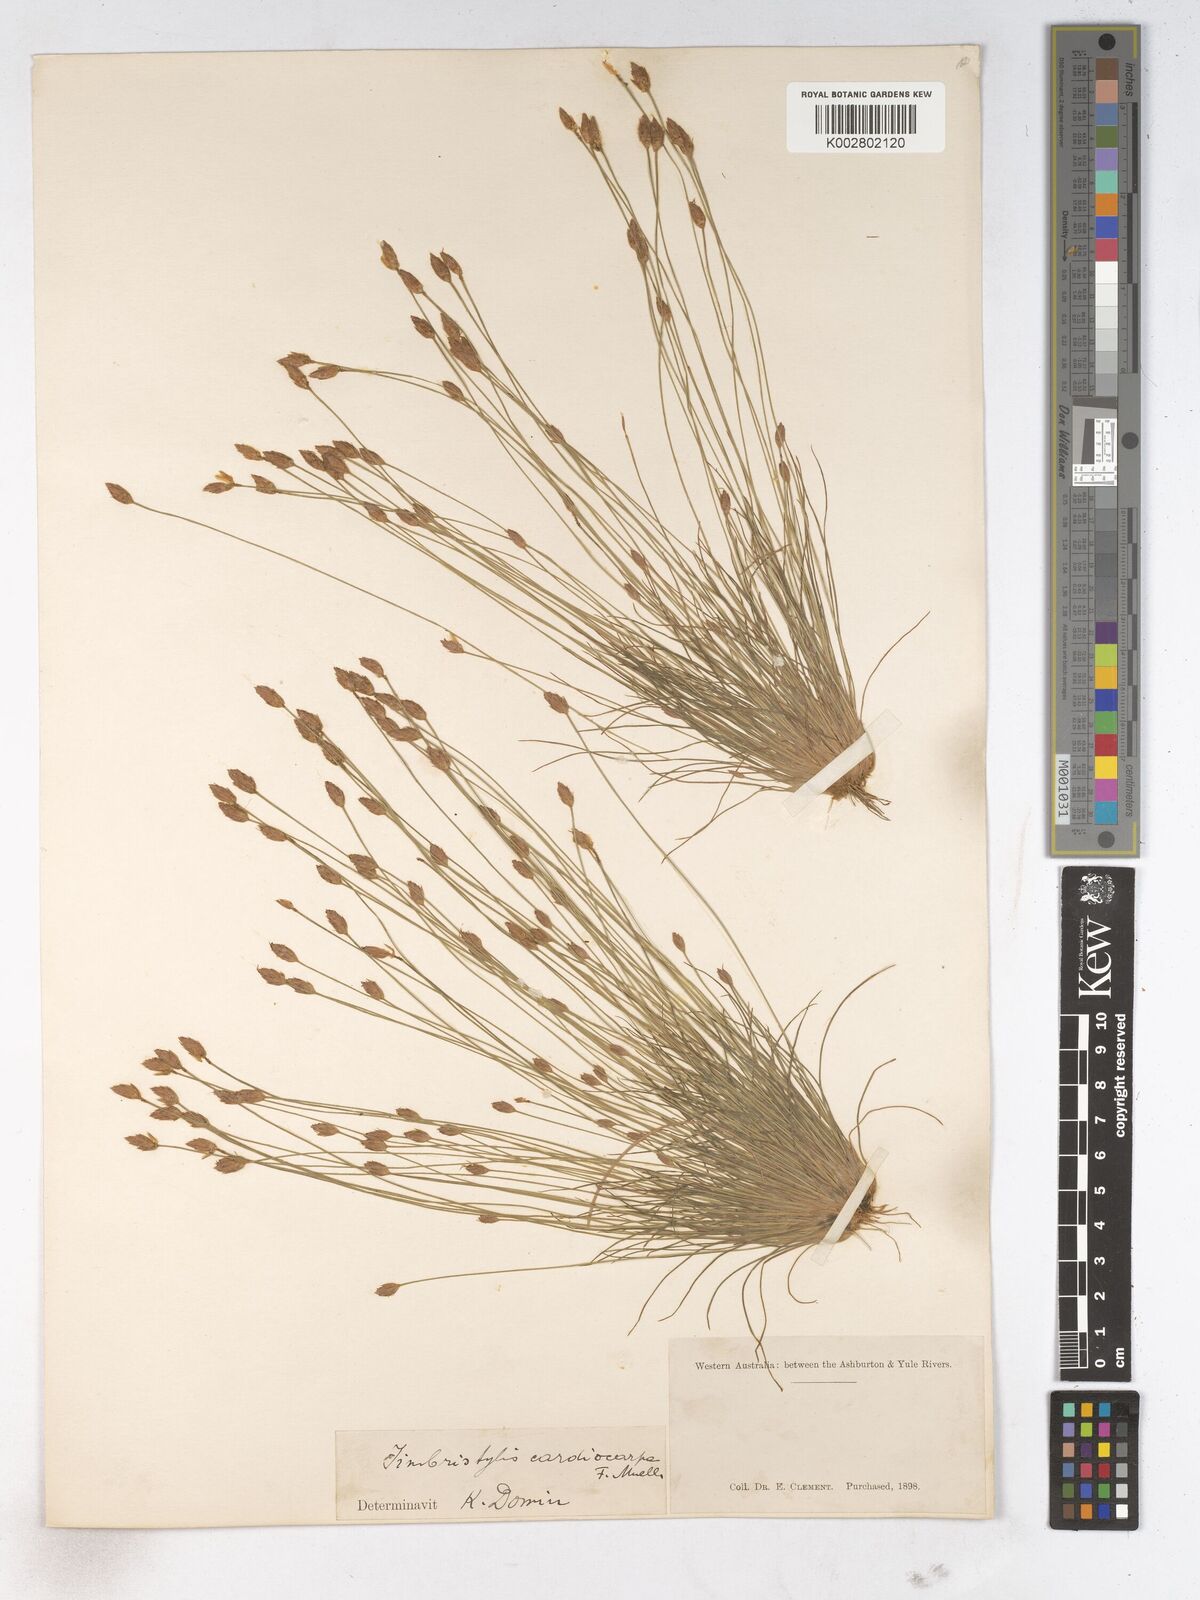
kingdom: Plantae
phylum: Tracheophyta
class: Liliopsida
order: Poales
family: Cyperaceae
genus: Fimbristylis
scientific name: Fimbristylis cardiocarpa
